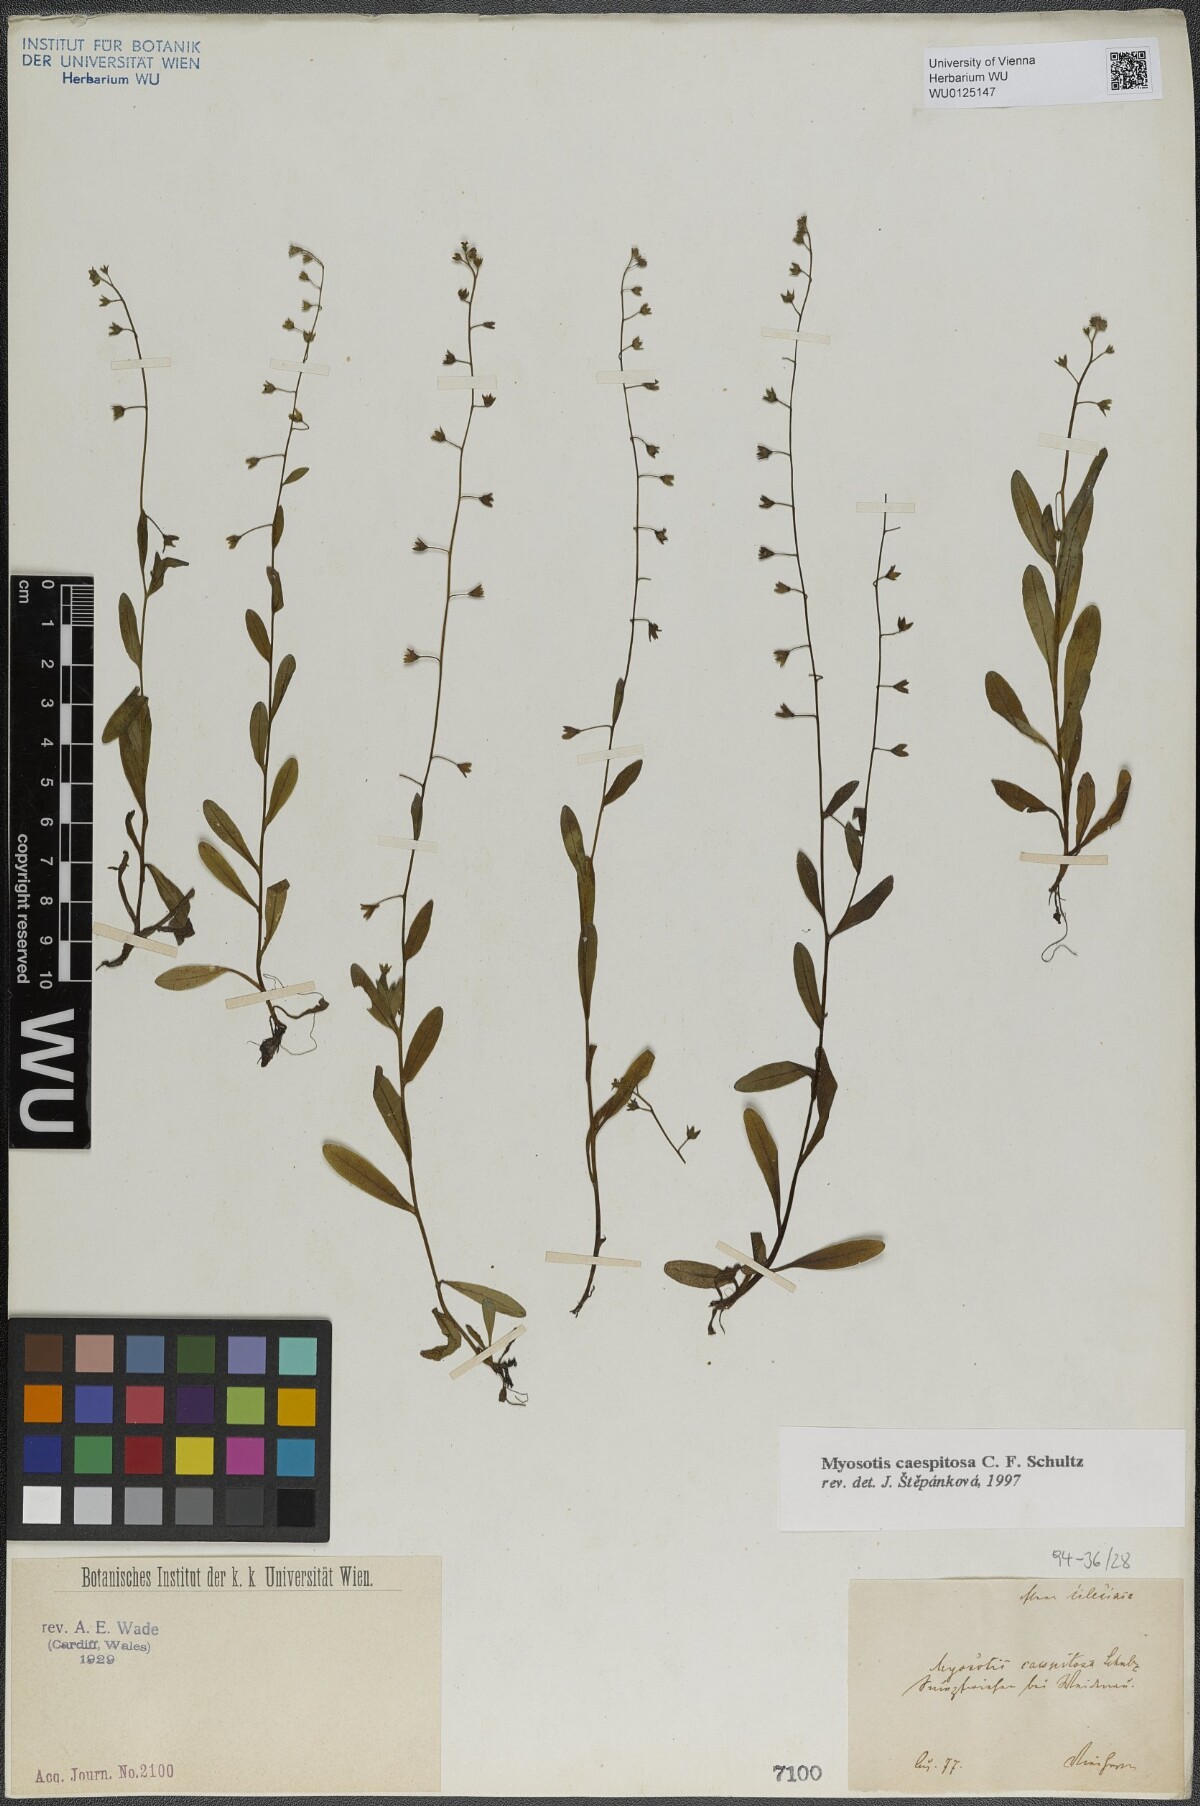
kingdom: Plantae
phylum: Tracheophyta
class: Magnoliopsida
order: Boraginales
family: Boraginaceae
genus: Myosotis
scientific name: Myosotis laxa
